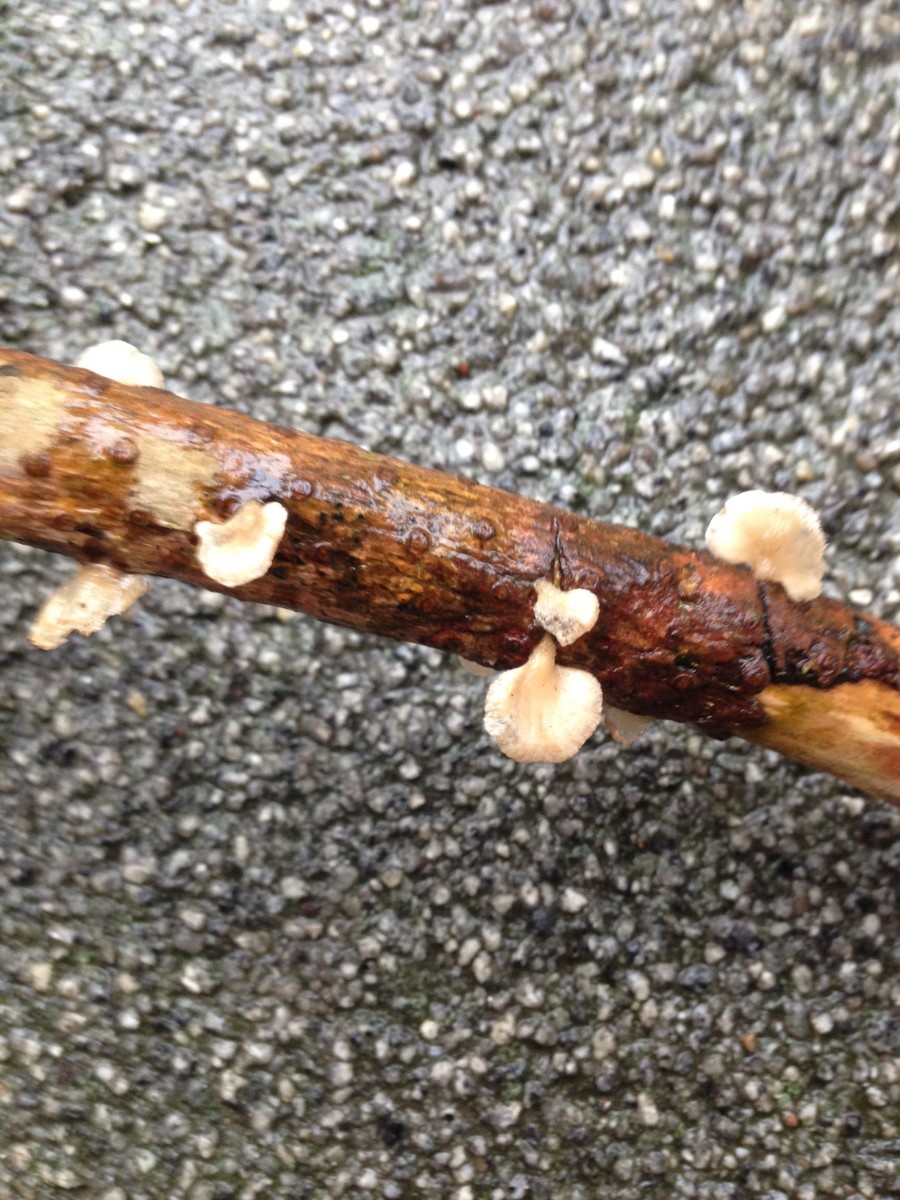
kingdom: Fungi
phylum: Basidiomycota
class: Agaricomycetes
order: Agaricales
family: Mycenaceae
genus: Panellus
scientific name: Panellus mitis
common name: mild epaulethat
